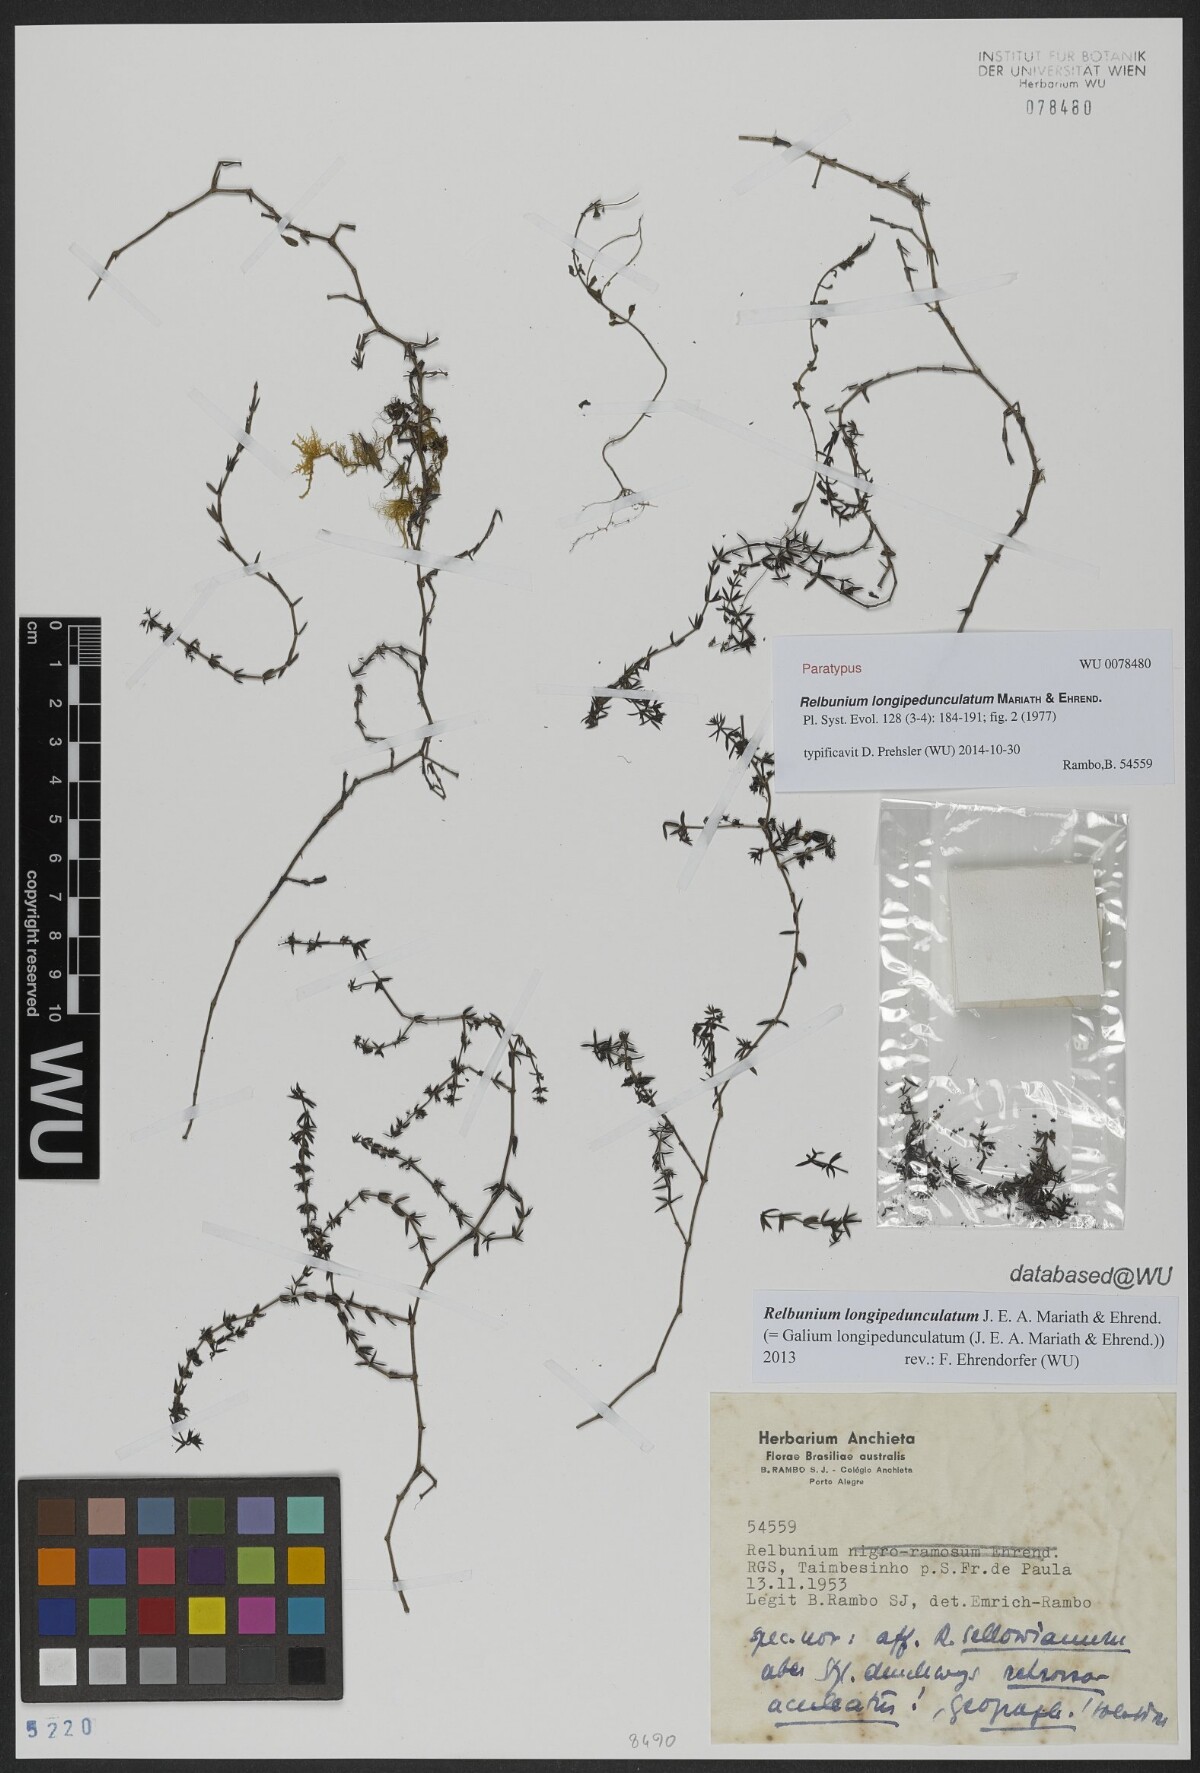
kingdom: Plantae
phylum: Tracheophyta
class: Magnoliopsida
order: Gentianales
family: Rubiaceae
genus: Galium
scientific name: Galium longipedunculatum
